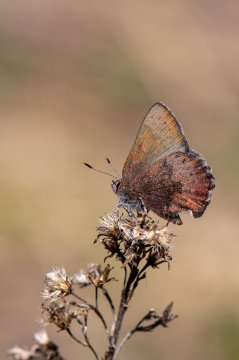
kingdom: Animalia
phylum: Arthropoda
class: Insecta
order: Lepidoptera
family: Lycaenidae
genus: Incisalia
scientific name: Incisalia irioides
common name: Brown Elfin
